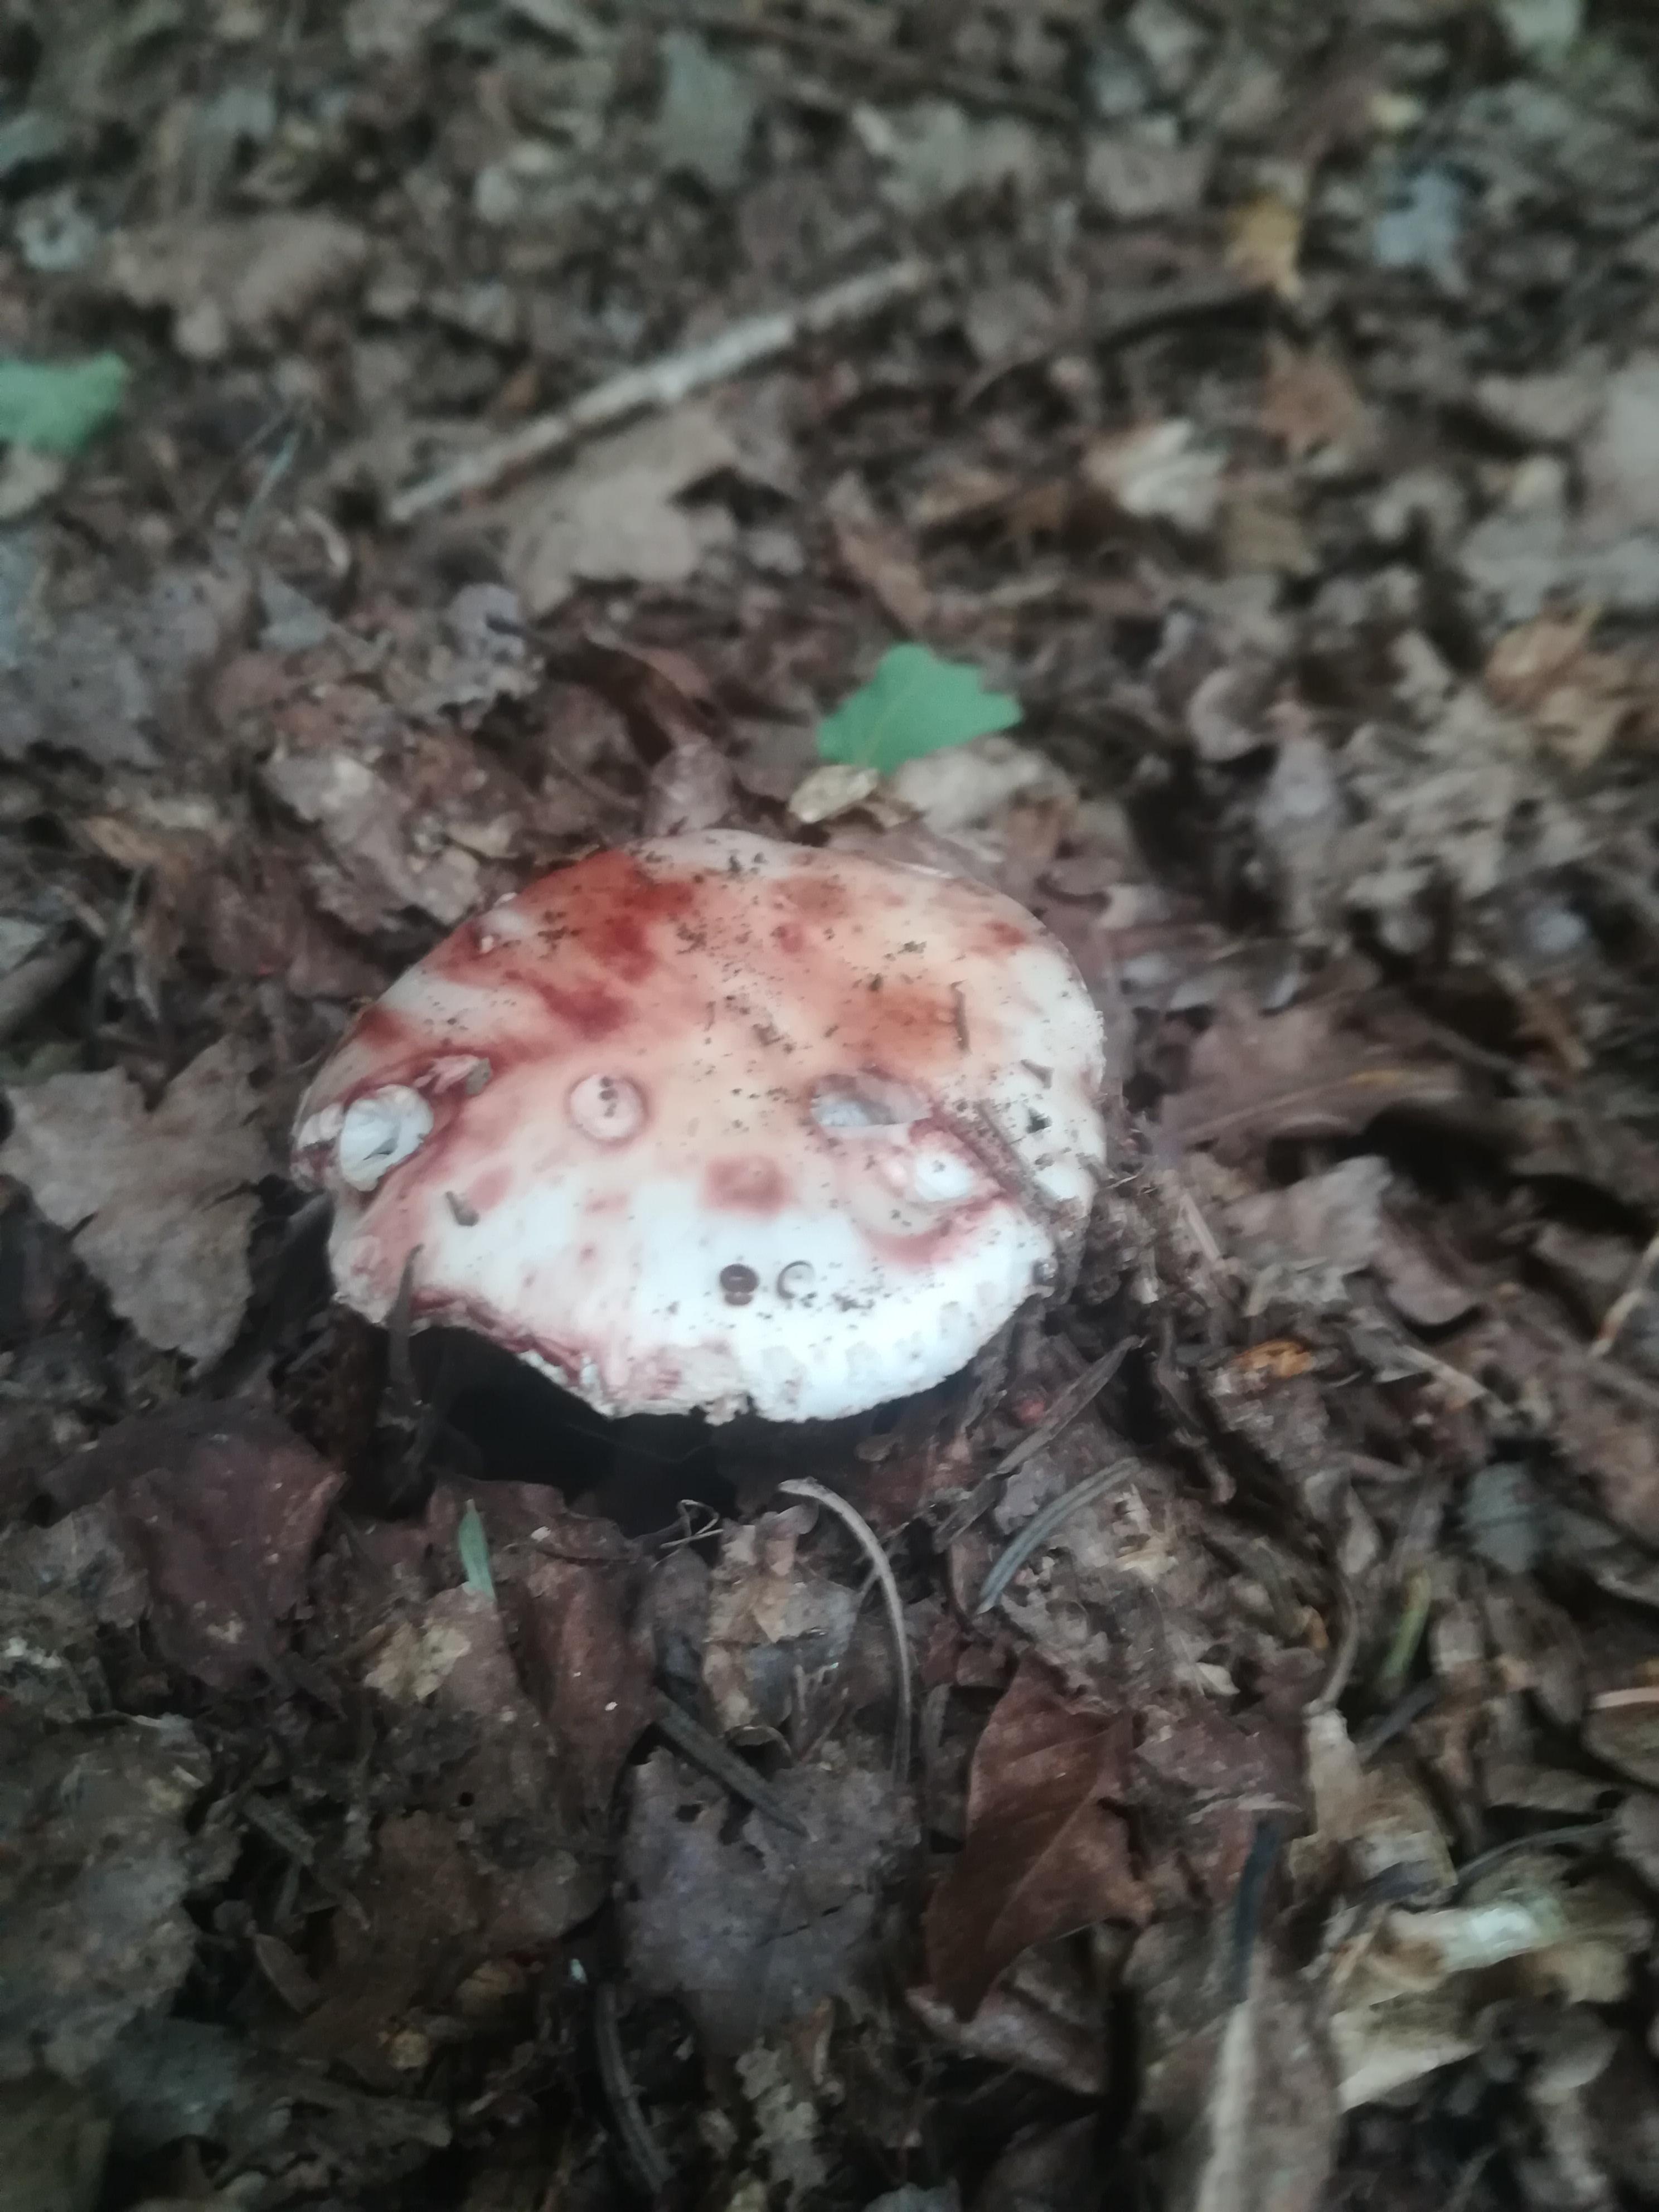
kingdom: Fungi
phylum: Basidiomycota
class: Agaricomycetes
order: Agaricales
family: Amanitaceae
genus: Amanita
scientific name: Amanita rubescens
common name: rødmende fluesvamp
